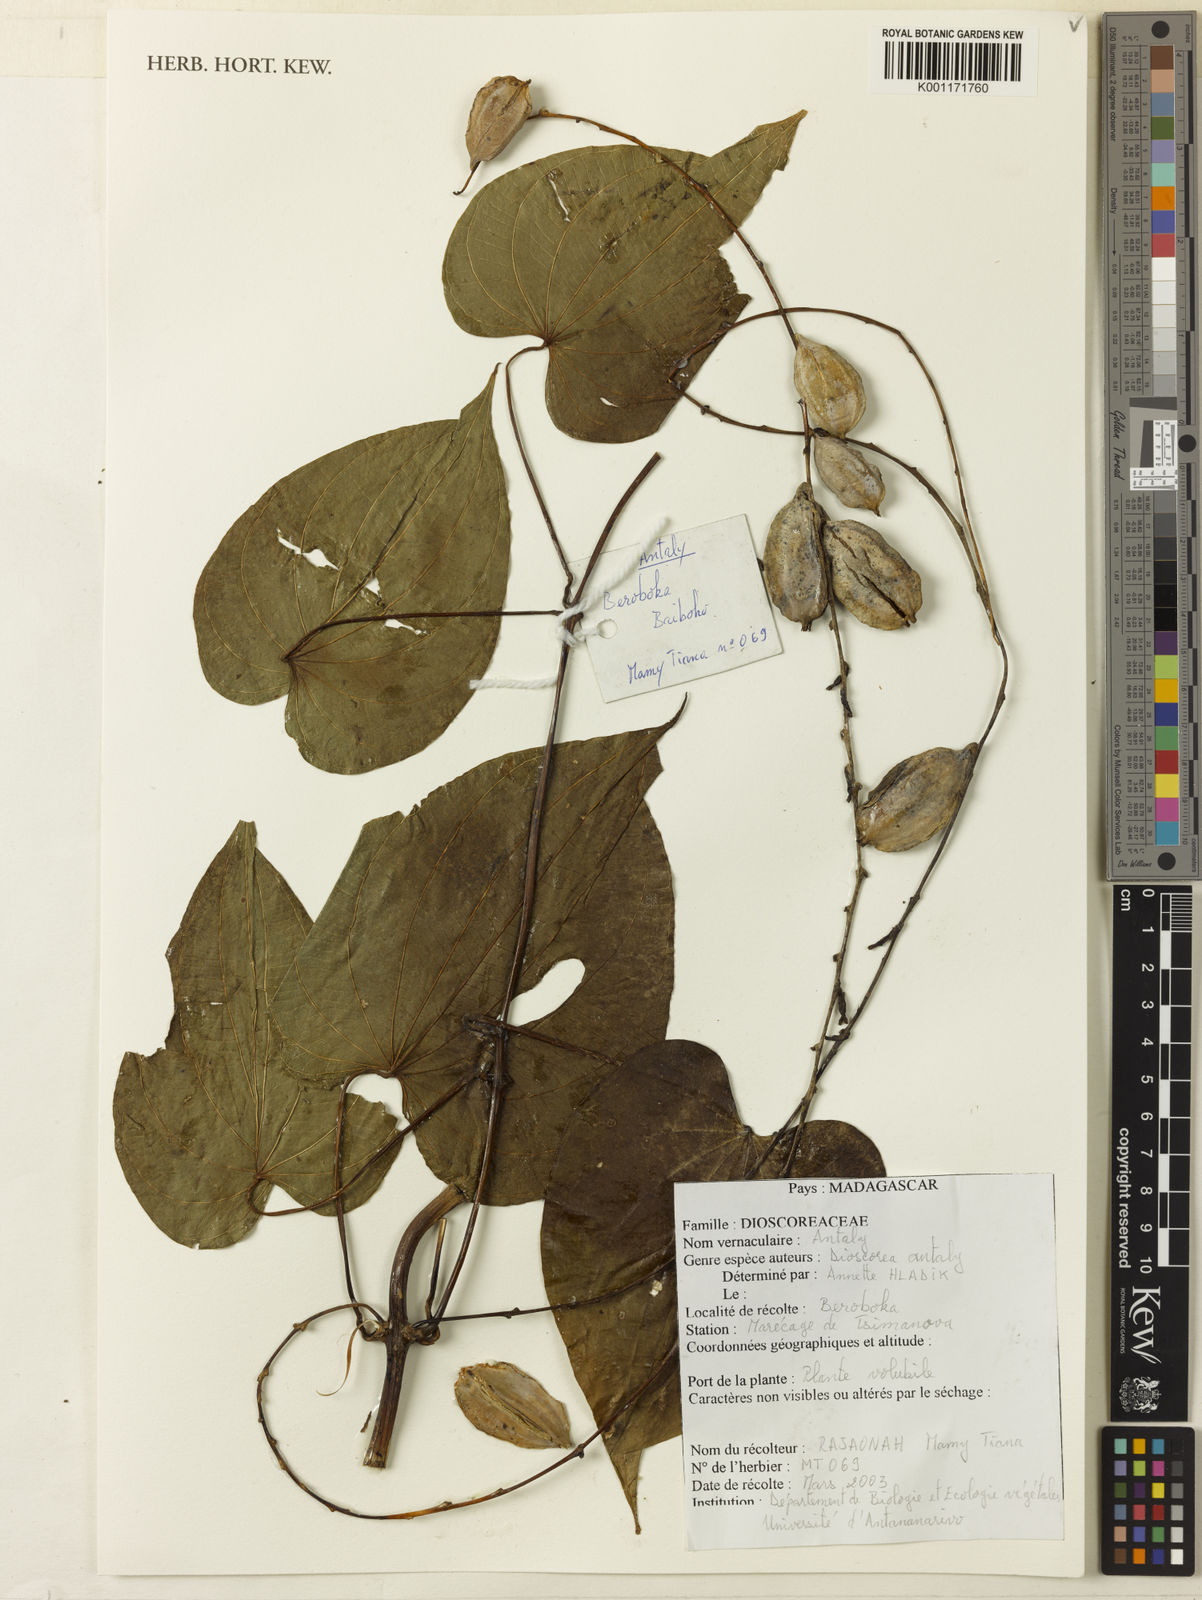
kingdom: Plantae
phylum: Tracheophyta
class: Liliopsida
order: Dioscoreales
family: Dioscoreaceae
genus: Dioscorea
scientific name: Dioscorea antaly
